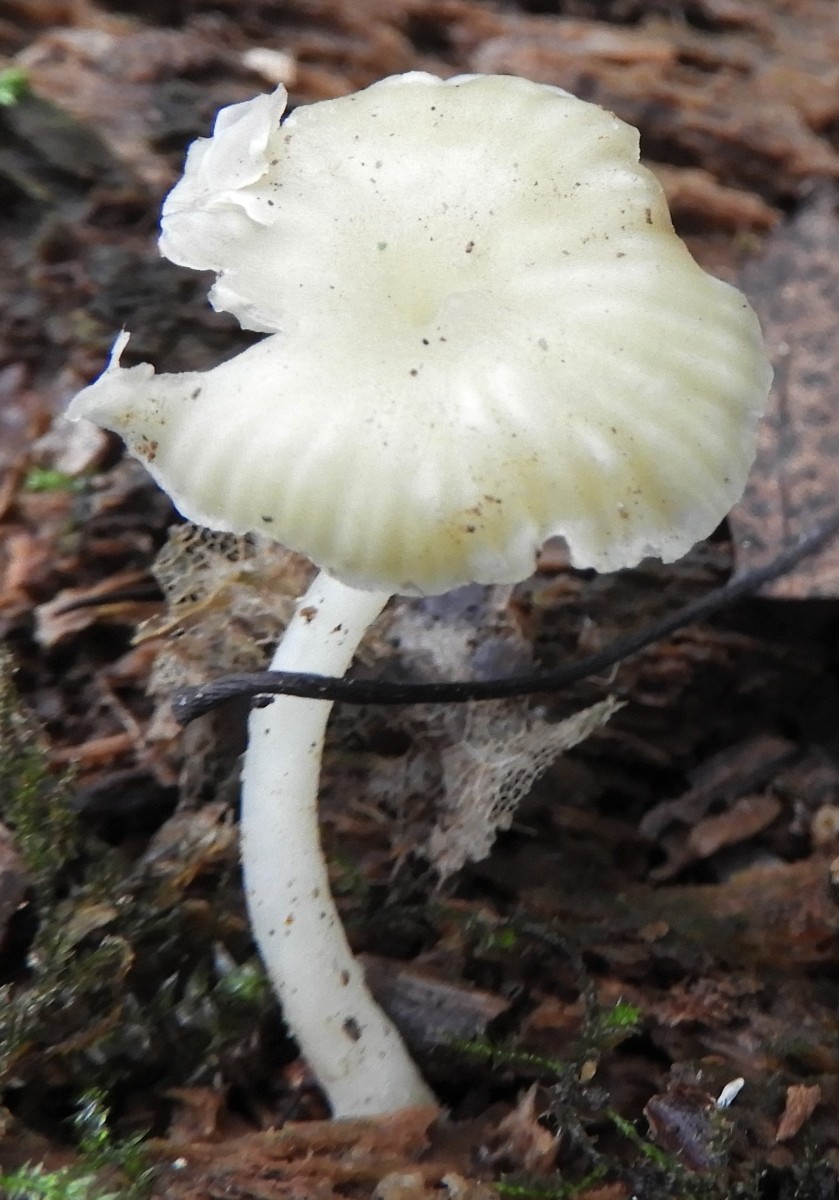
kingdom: Fungi
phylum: Basidiomycota
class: Agaricomycetes
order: Agaricales
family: Hygrophoraceae
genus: Chrysomphalina
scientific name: Chrysomphalina grossula
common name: stød-gyldenblad
